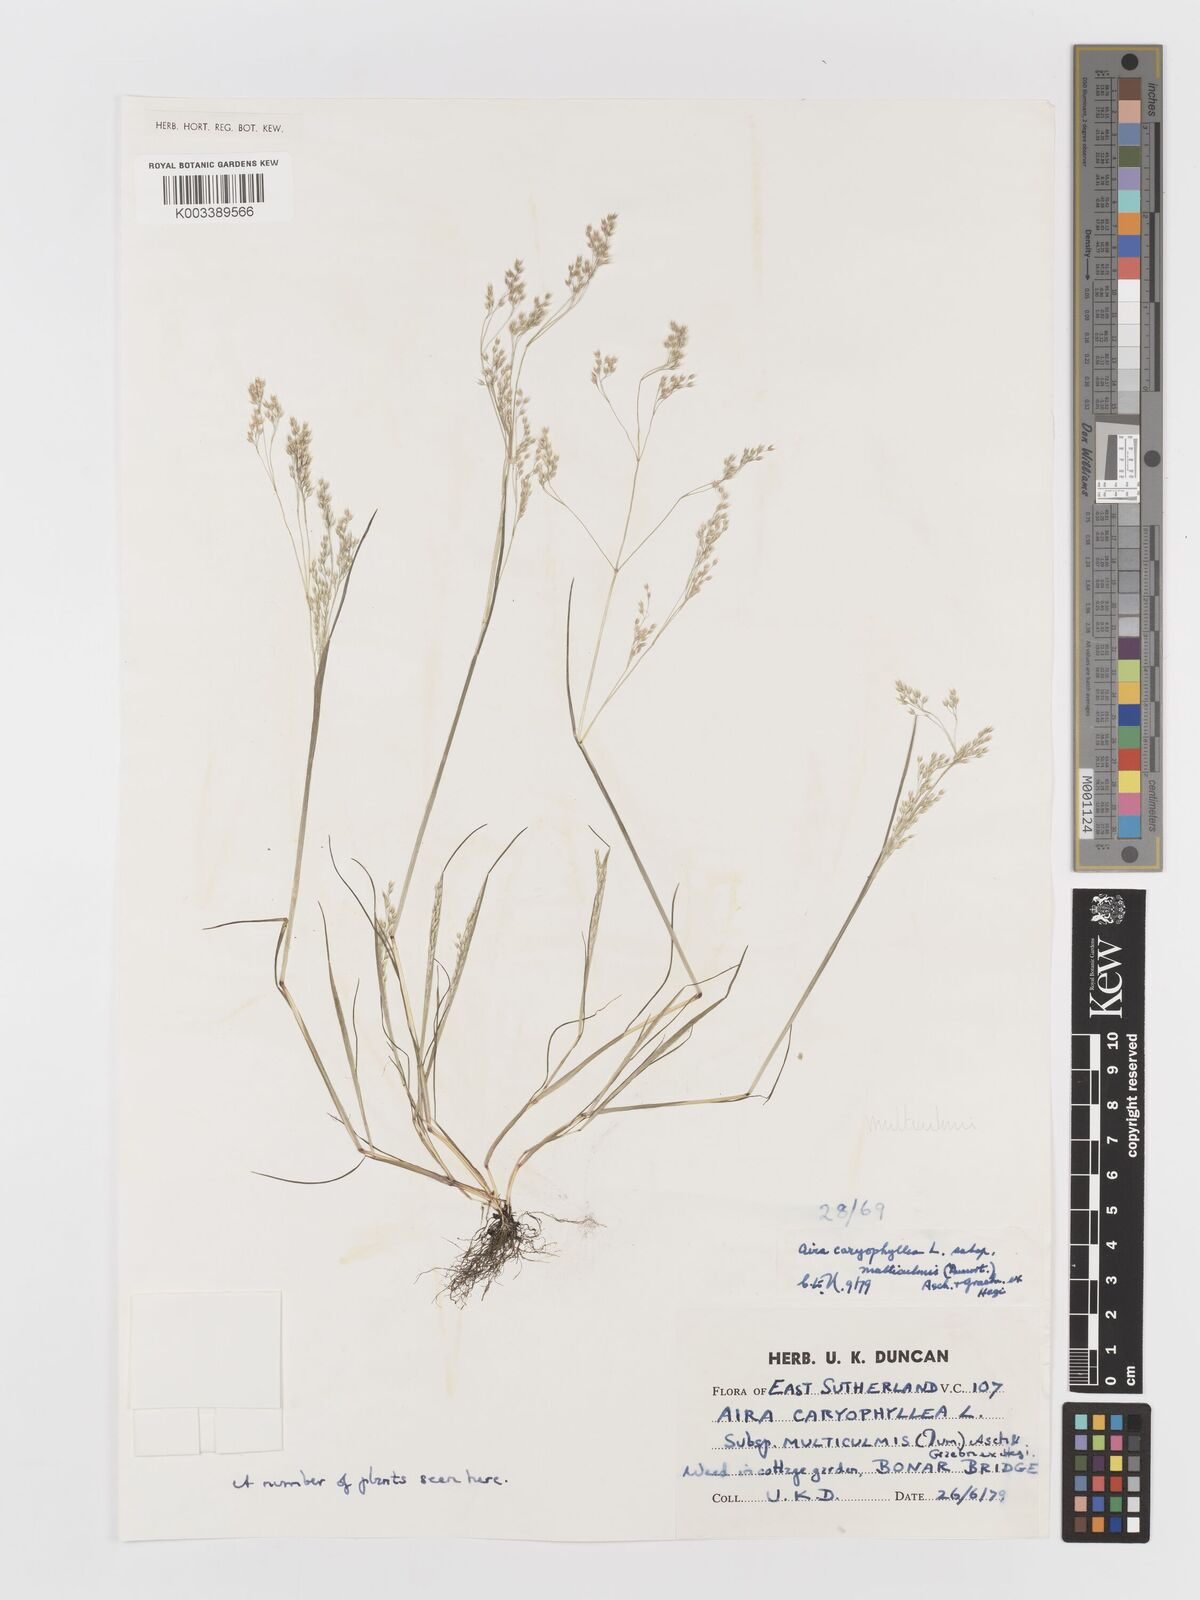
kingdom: Plantae
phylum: Tracheophyta
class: Liliopsida
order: Poales
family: Poaceae
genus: Aira
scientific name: Aira caryophyllea
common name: Silver hairgrass
